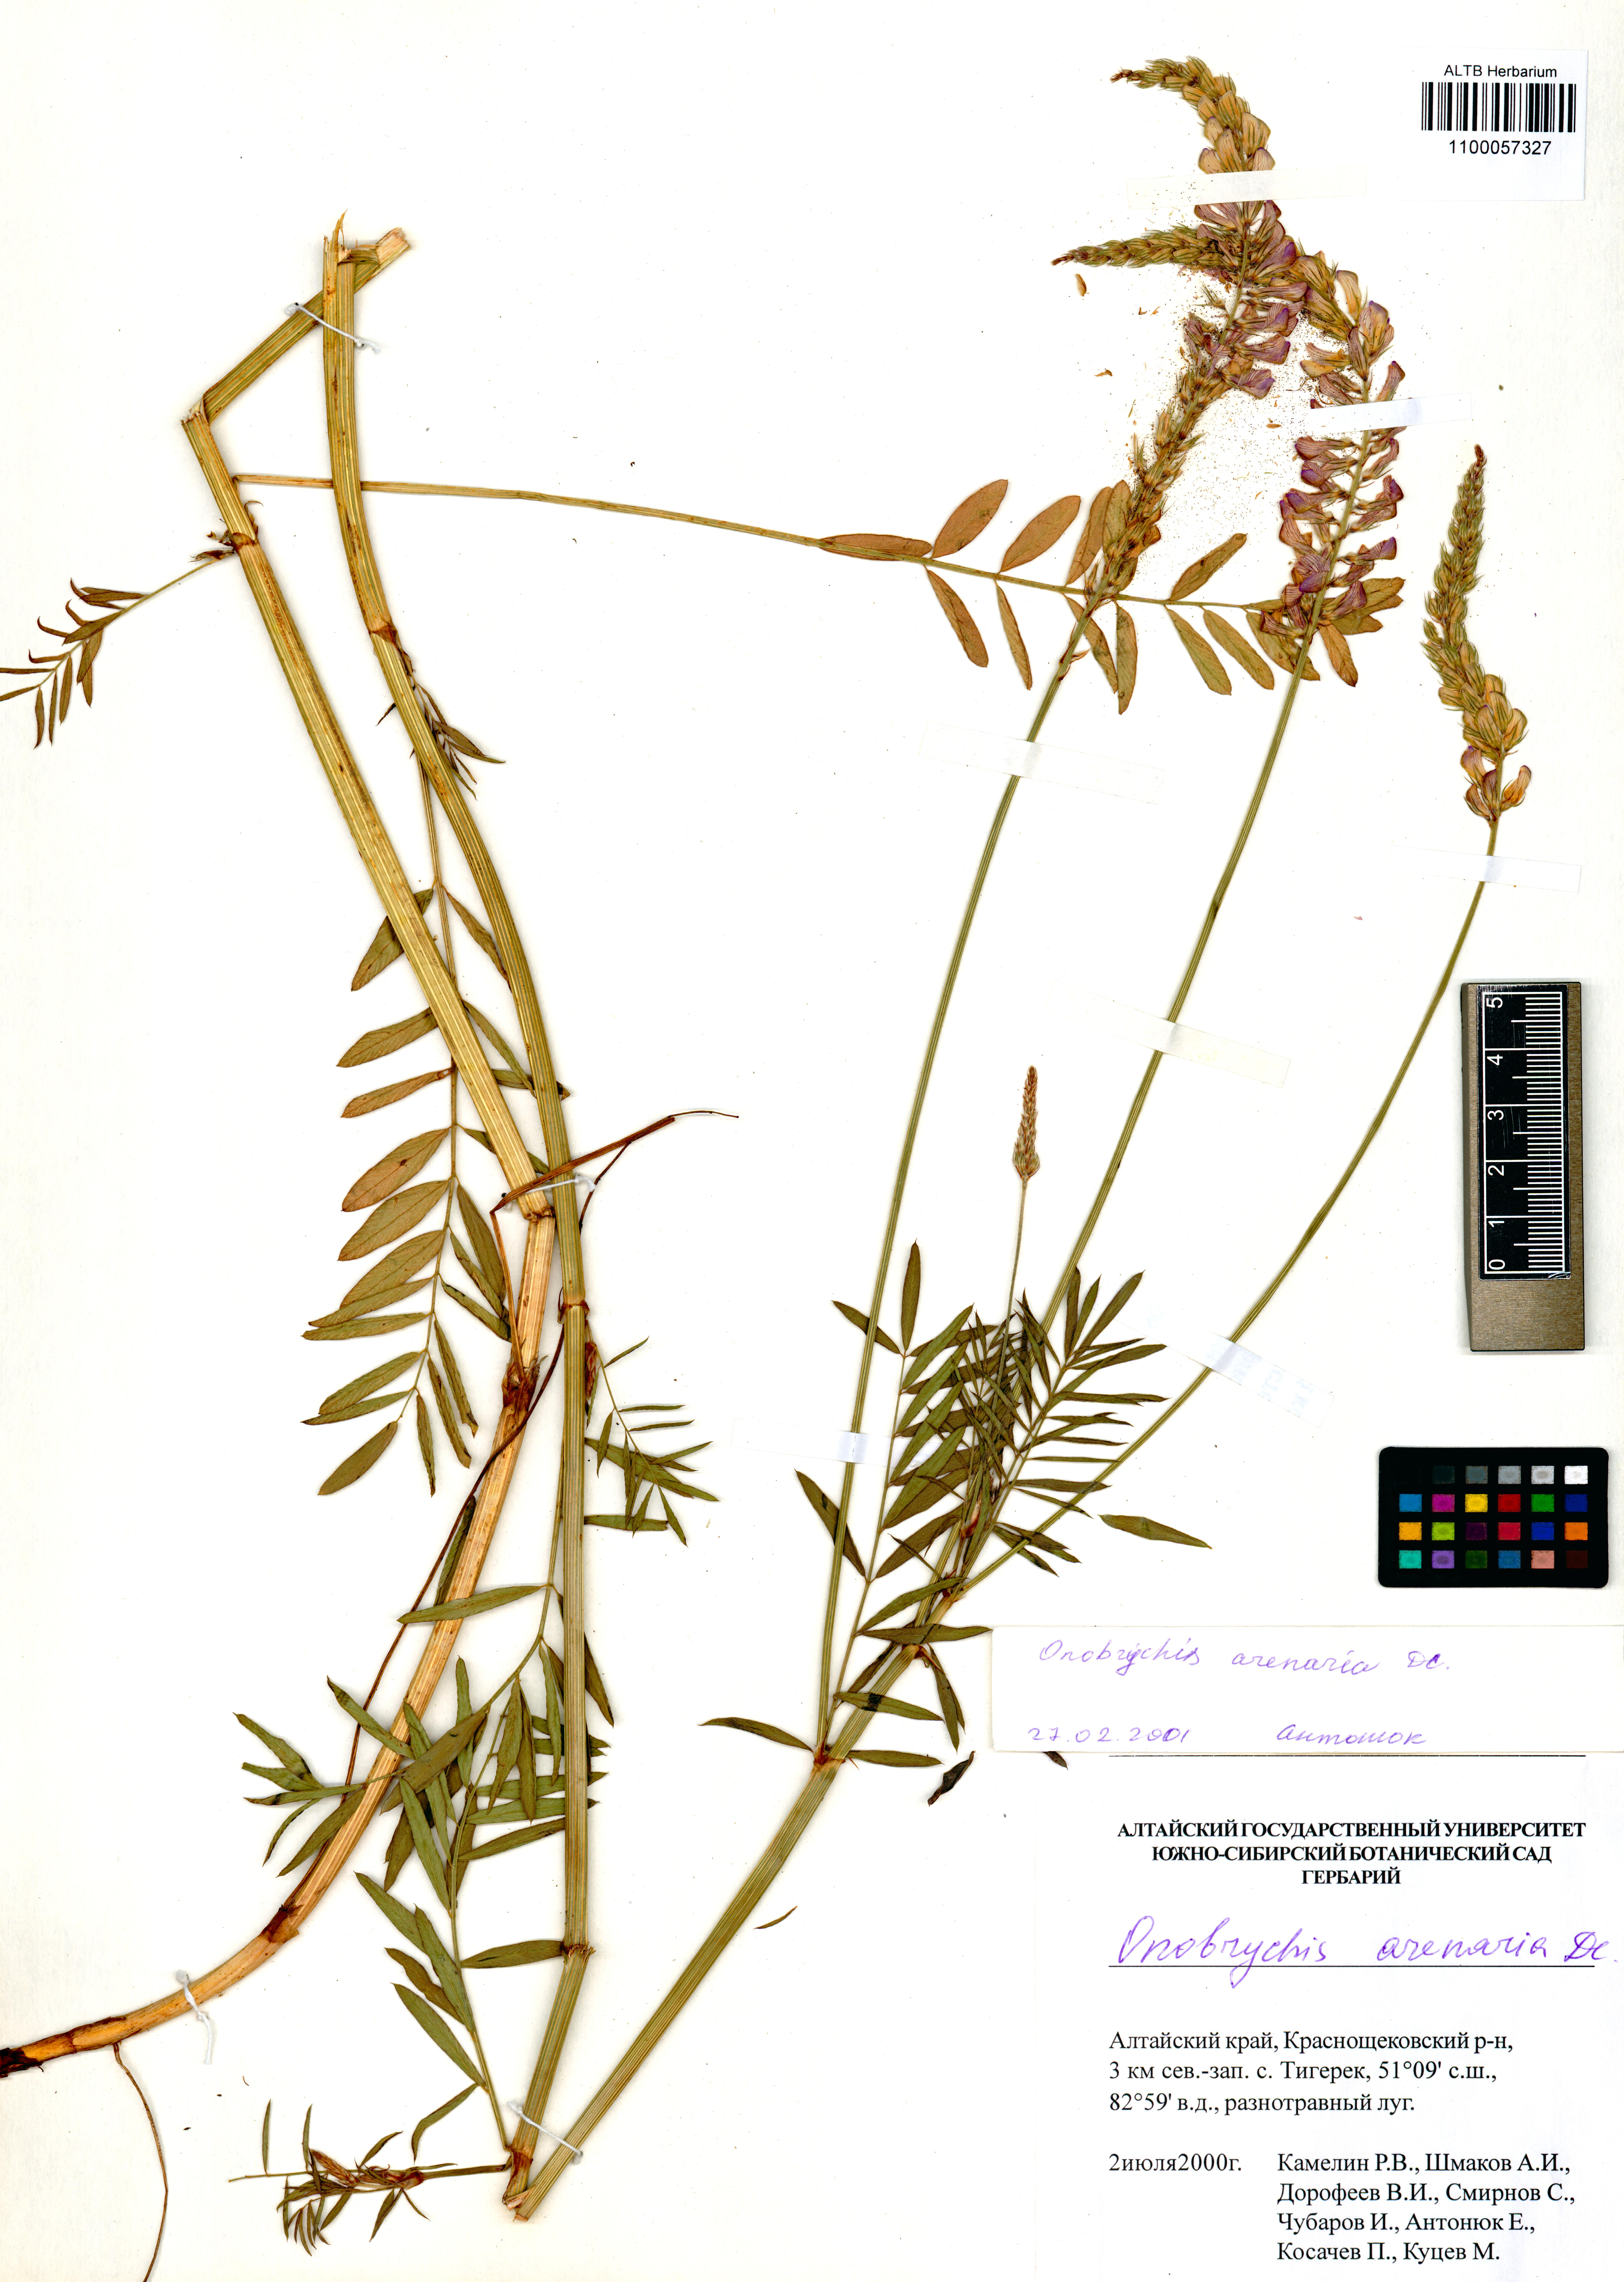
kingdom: Plantae
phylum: Tracheophyta
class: Magnoliopsida
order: Fabales
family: Fabaceae
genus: Onobrychis
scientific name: Onobrychis arenaria
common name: Sand esparcet
